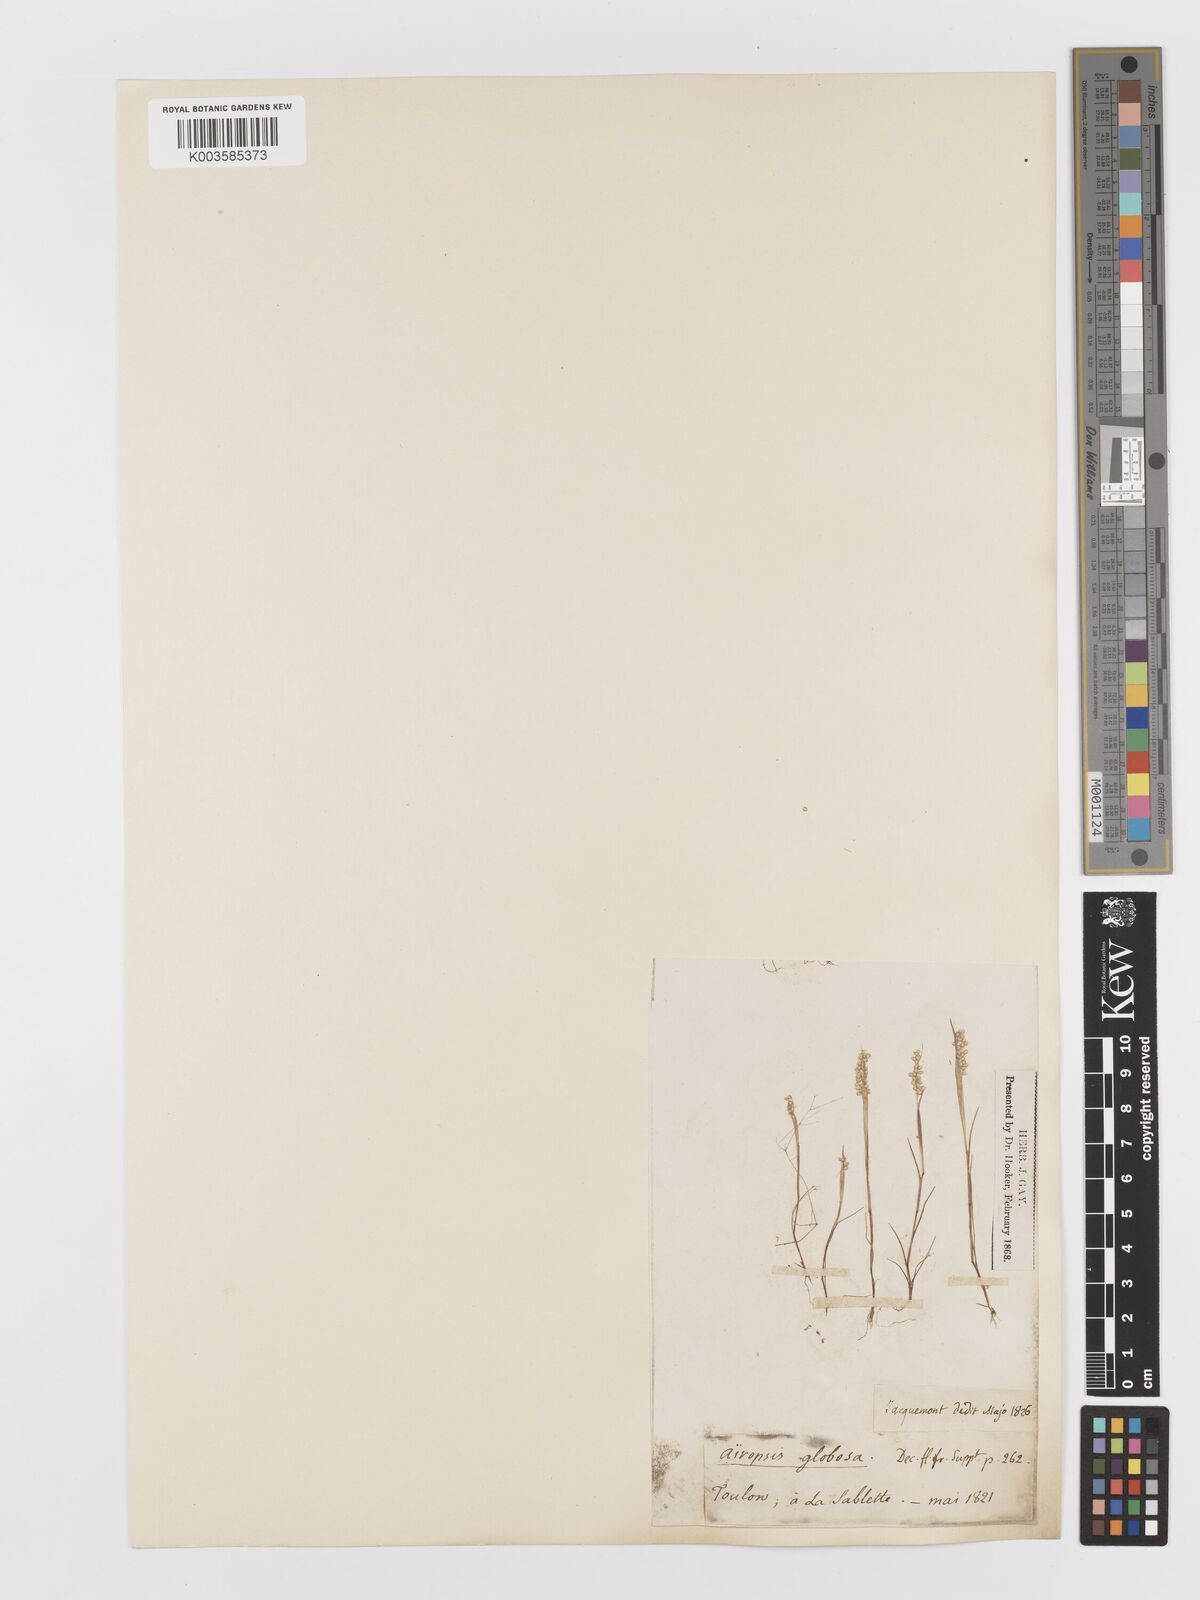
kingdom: Plantae
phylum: Tracheophyta
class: Liliopsida
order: Poales
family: Poaceae
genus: Airopsis
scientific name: Airopsis tenella
